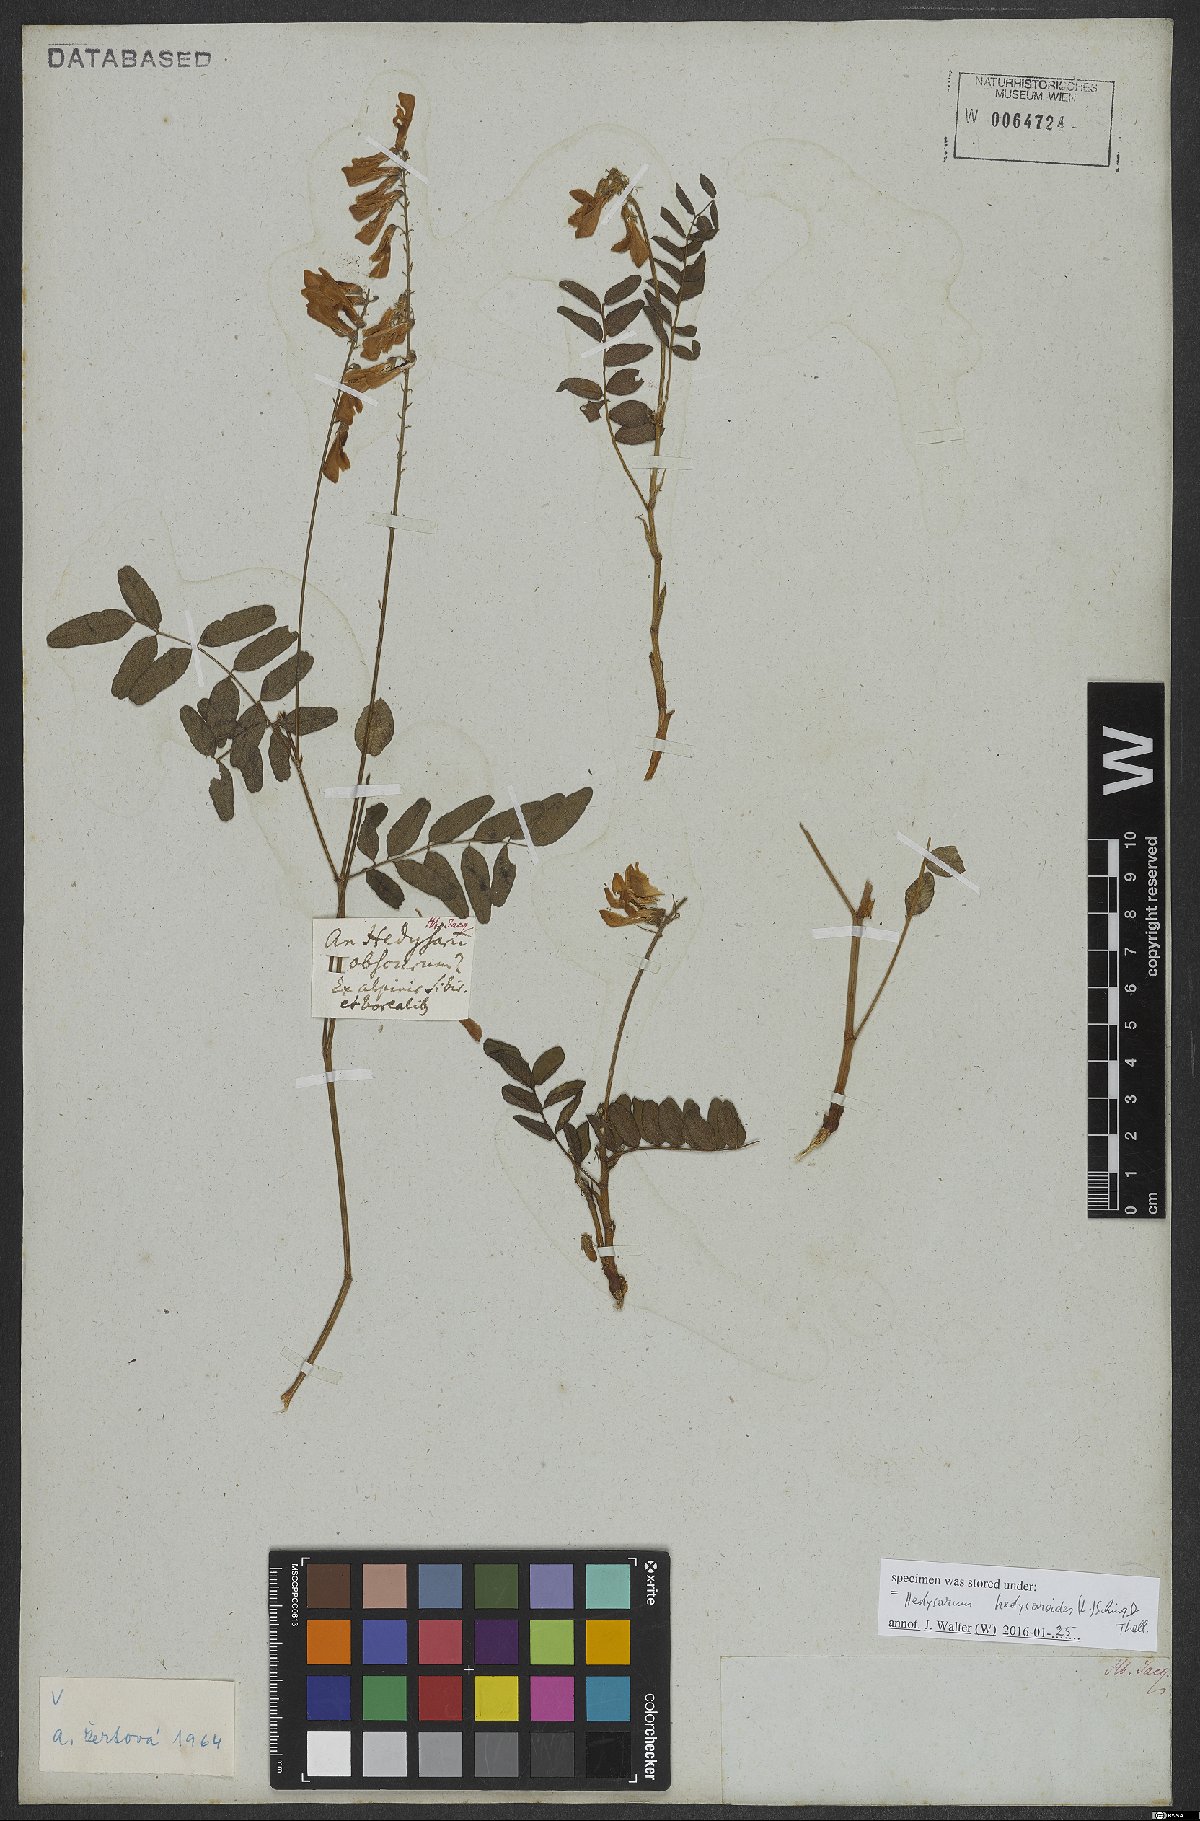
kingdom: Plantae
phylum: Tracheophyta
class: Magnoliopsida
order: Fabales
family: Fabaceae
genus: Hedysarum
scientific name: Hedysarum hedysaroides
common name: Alpine french-honeysuckle
